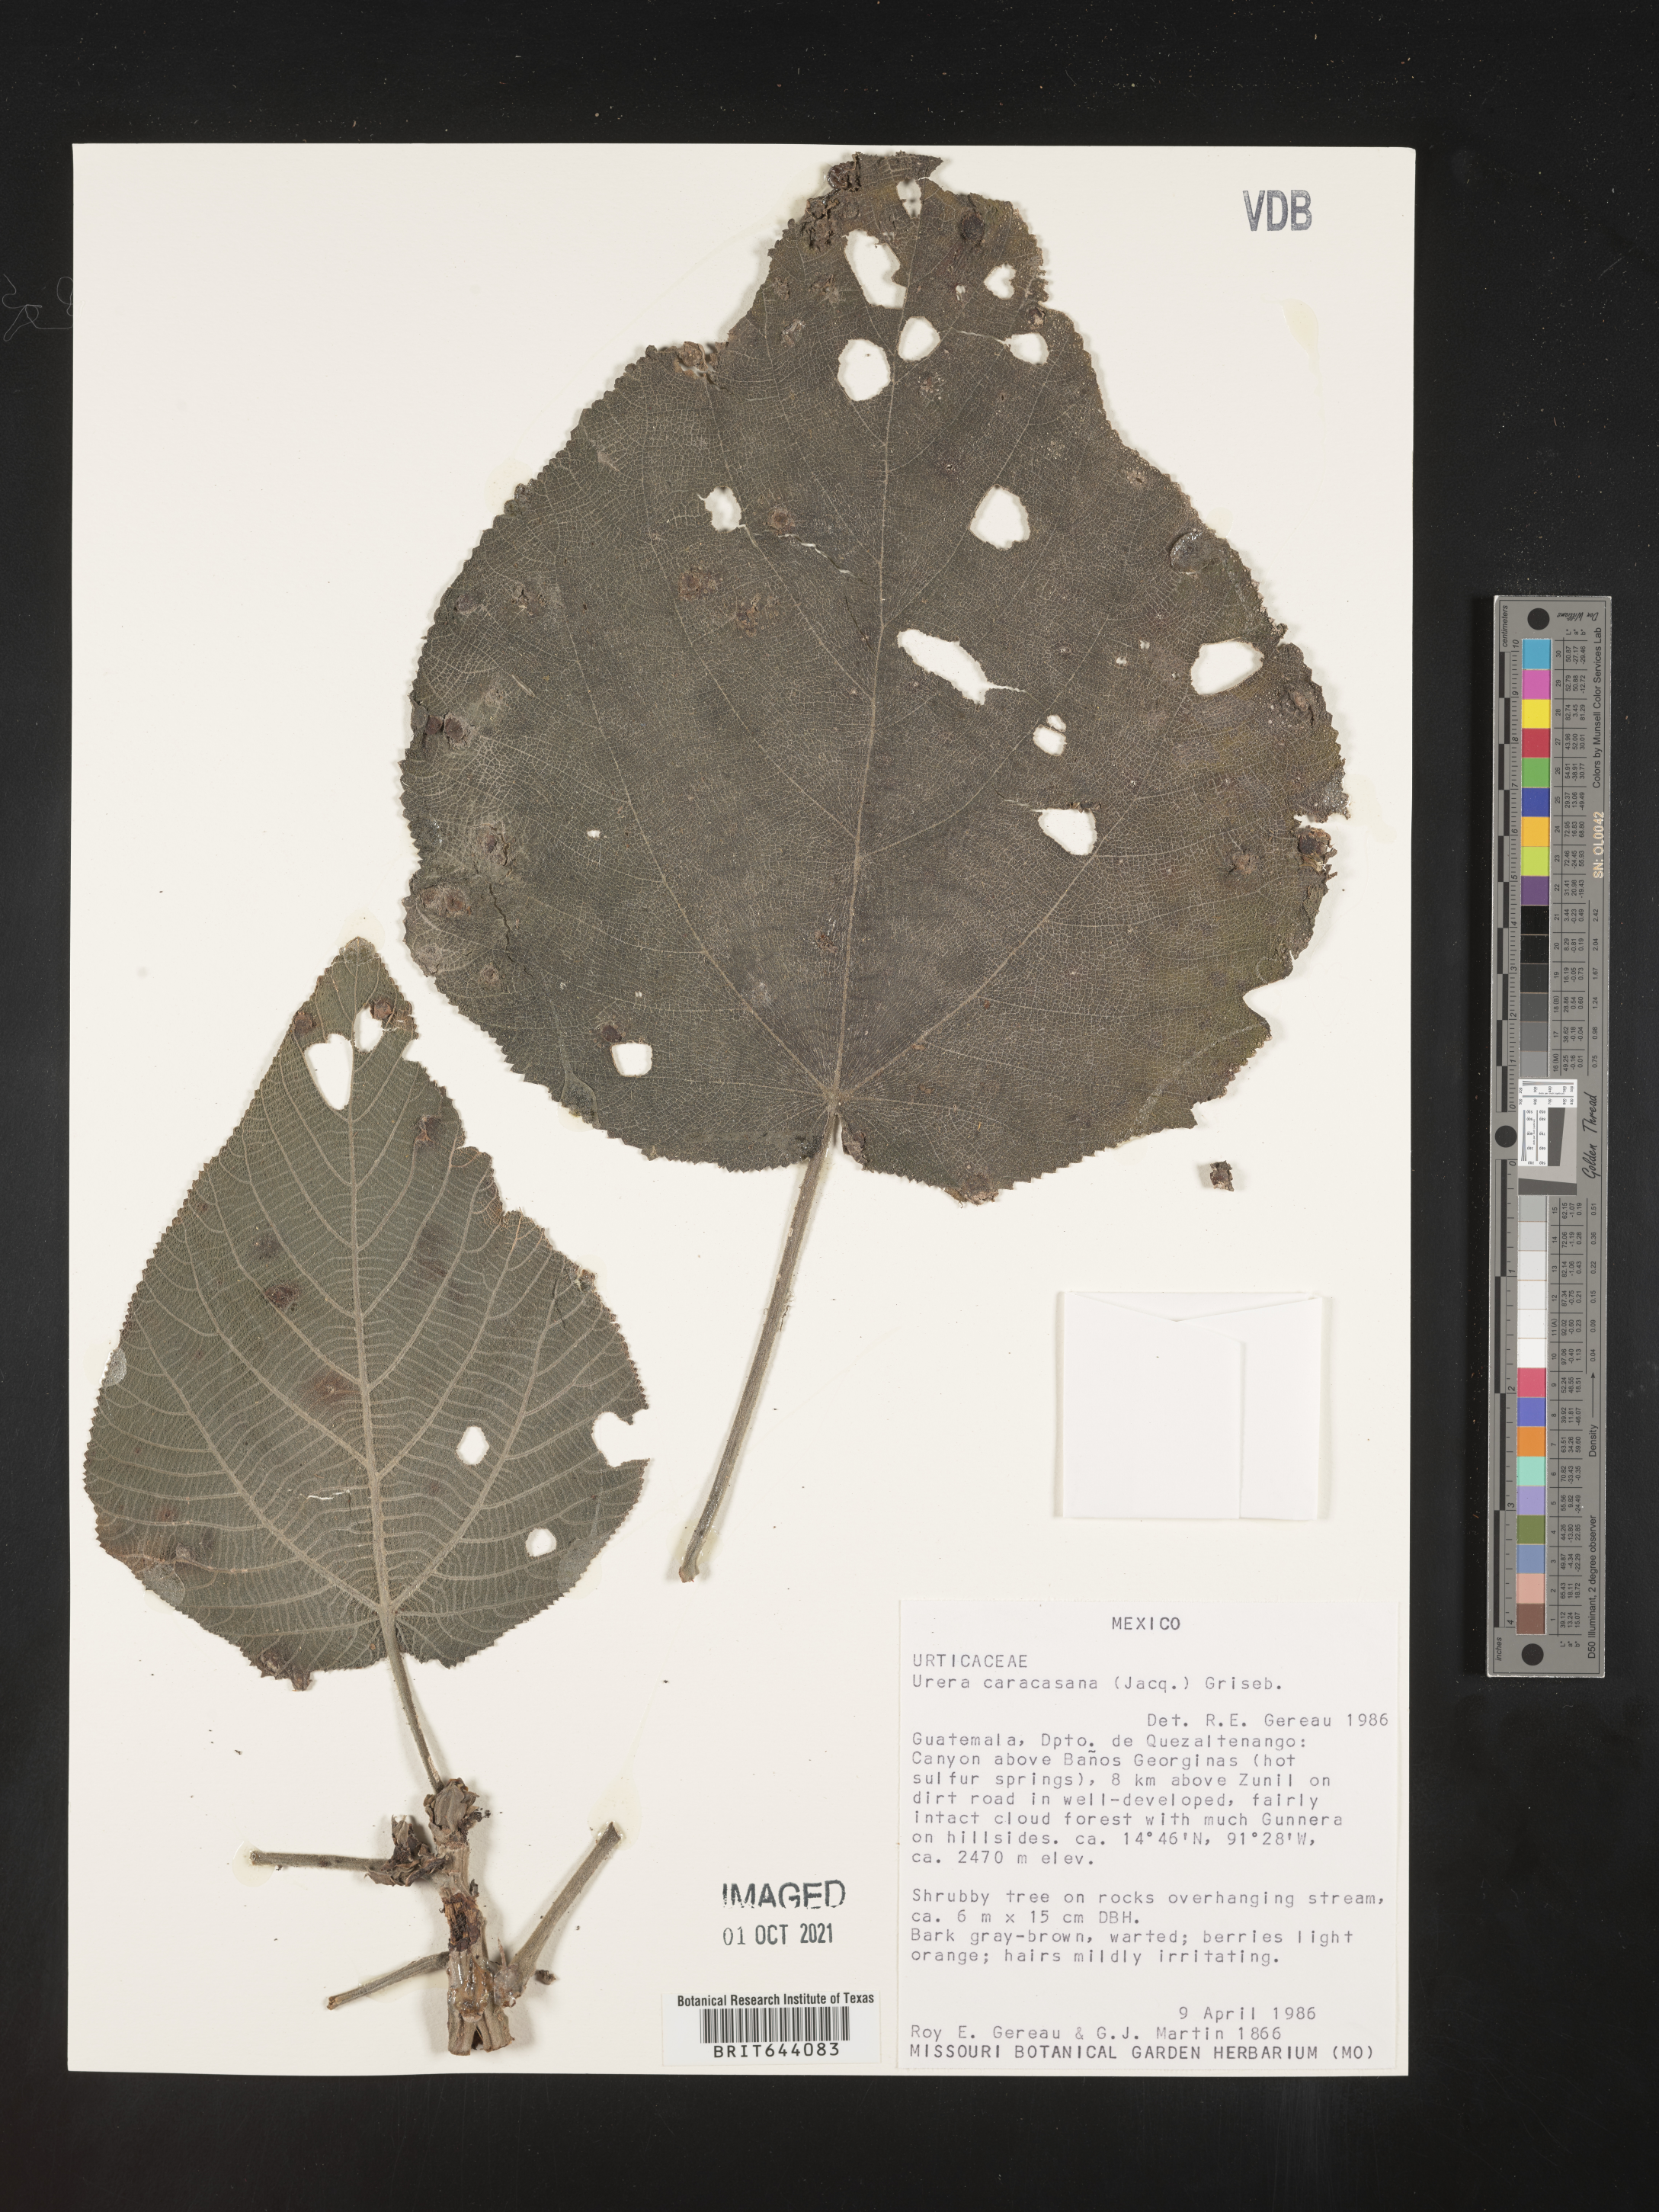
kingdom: Plantae
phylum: Tracheophyta
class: Magnoliopsida
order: Rosales
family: Urticaceae
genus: Urera
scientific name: Urera
